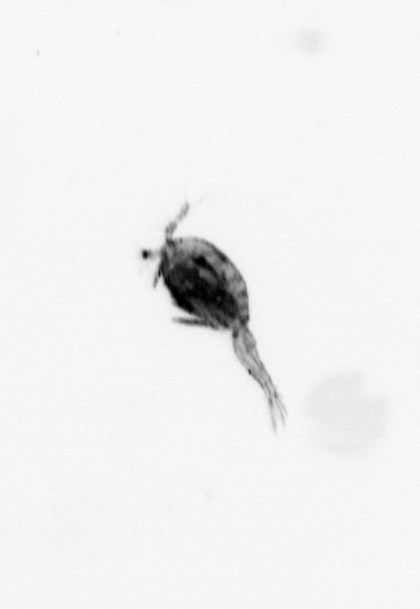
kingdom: Animalia
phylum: Arthropoda
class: Copepoda
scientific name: Copepoda
